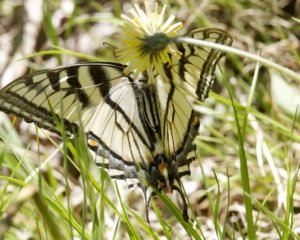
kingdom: Animalia
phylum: Arthropoda
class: Insecta
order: Lepidoptera
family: Papilionidae
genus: Pterourus
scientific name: Pterourus canadensis
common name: Canadian Tiger Swallowtail
